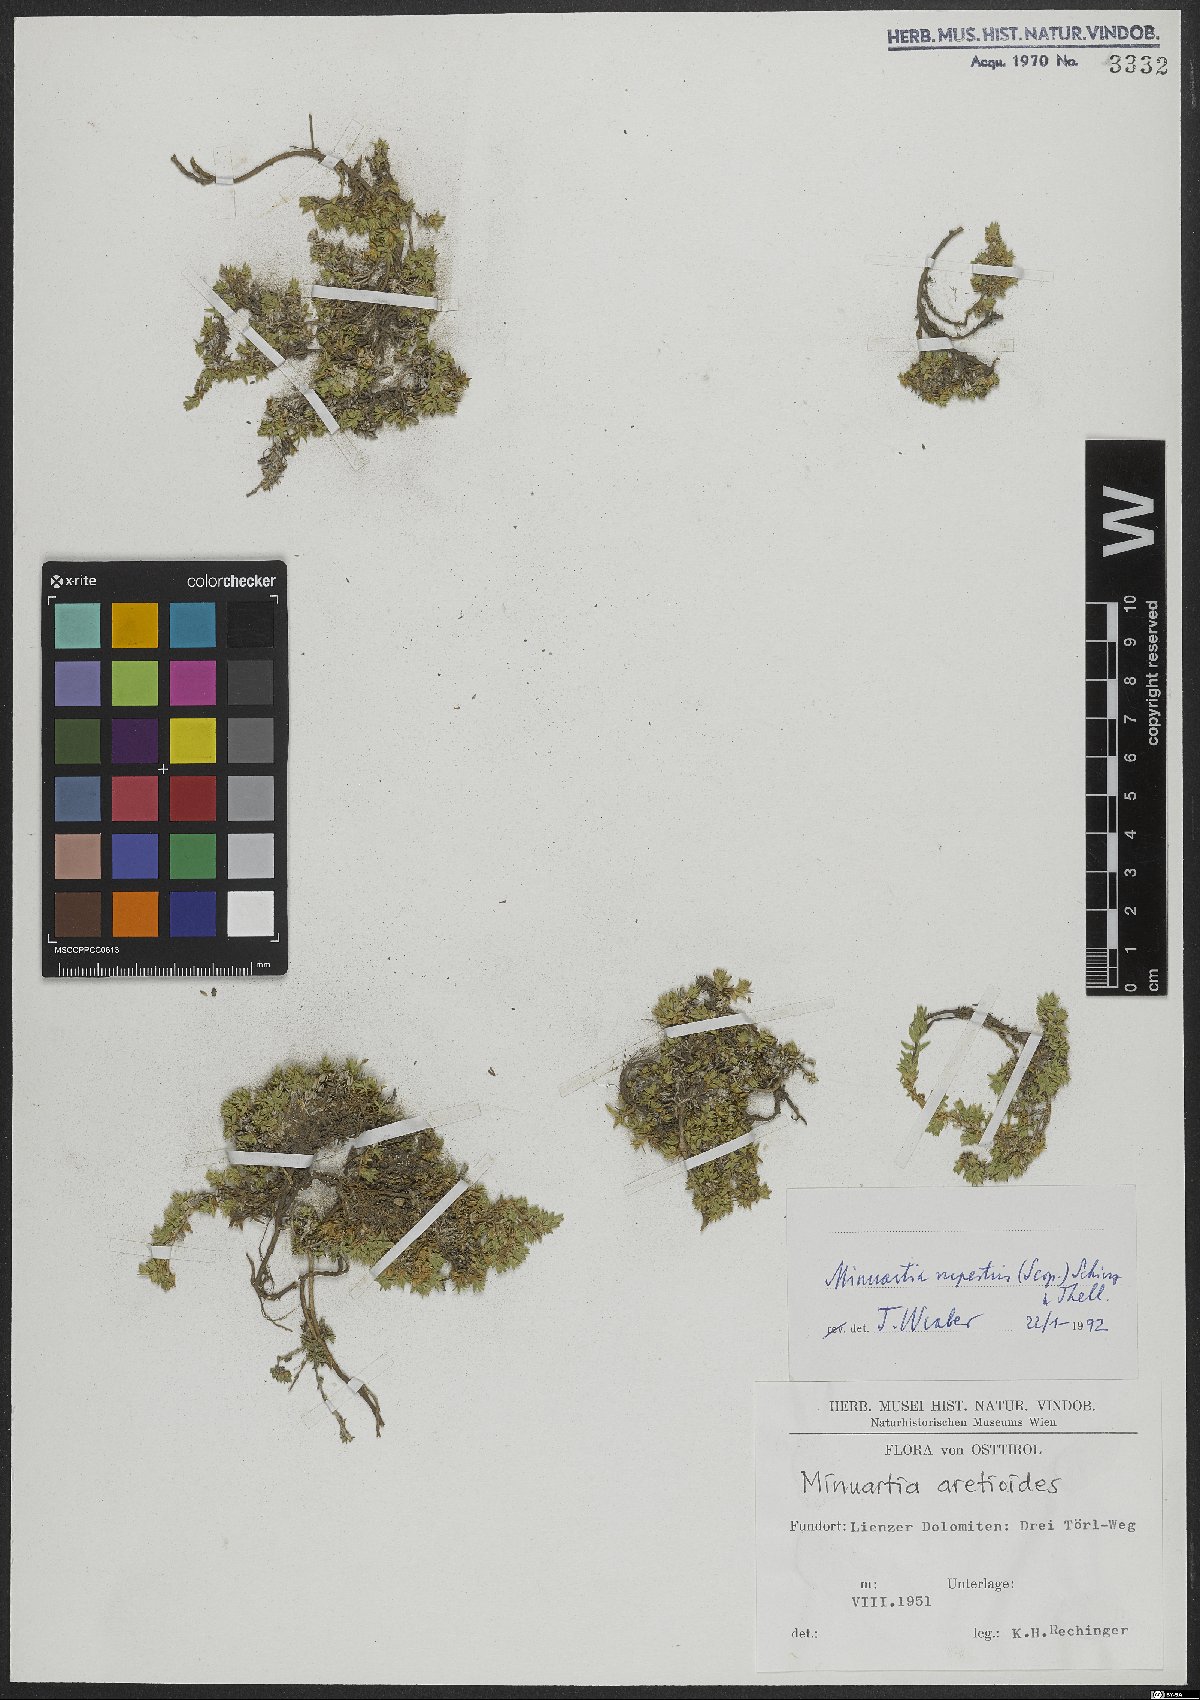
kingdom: Plantae
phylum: Tracheophyta
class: Magnoliopsida
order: Caryophyllales
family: Caryophyllaceae
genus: Facchinia
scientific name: Facchinia rupestris
